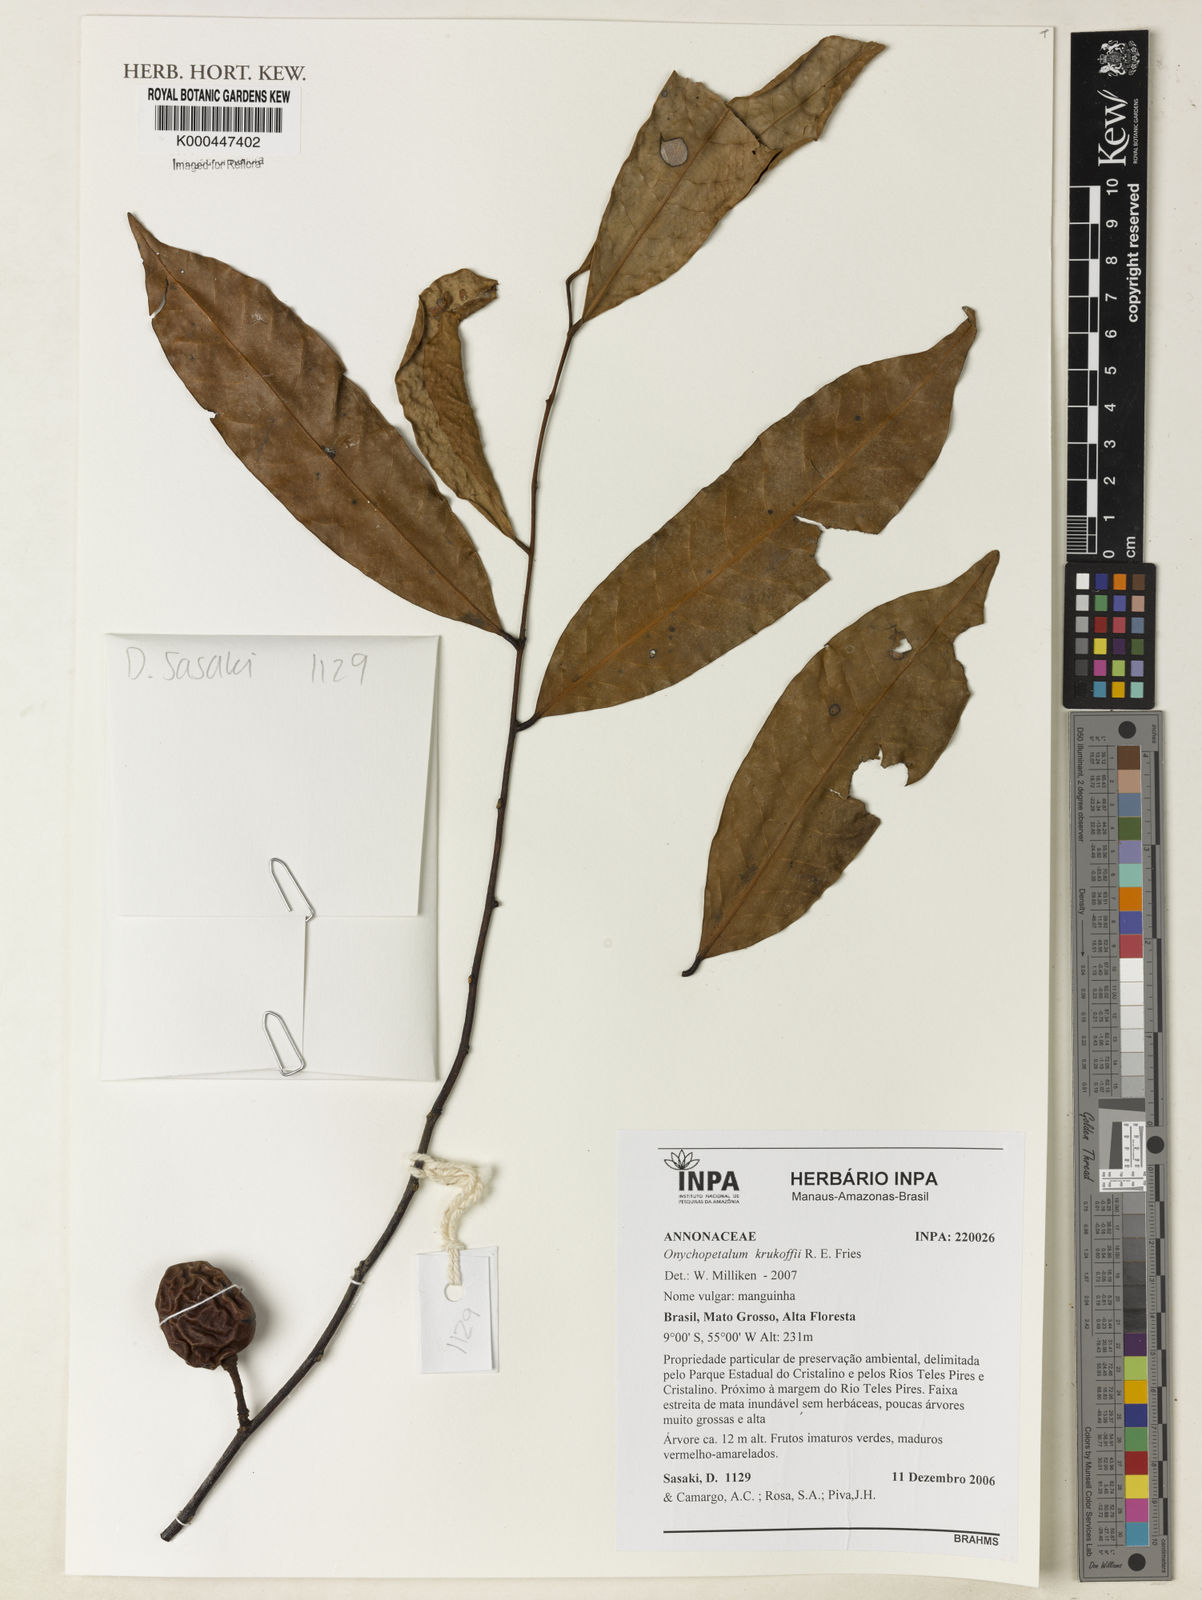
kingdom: Plantae
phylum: Tracheophyta
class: Magnoliopsida
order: Magnoliales
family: Annonaceae
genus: Onychopetalum
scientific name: Onychopetalum periquino
